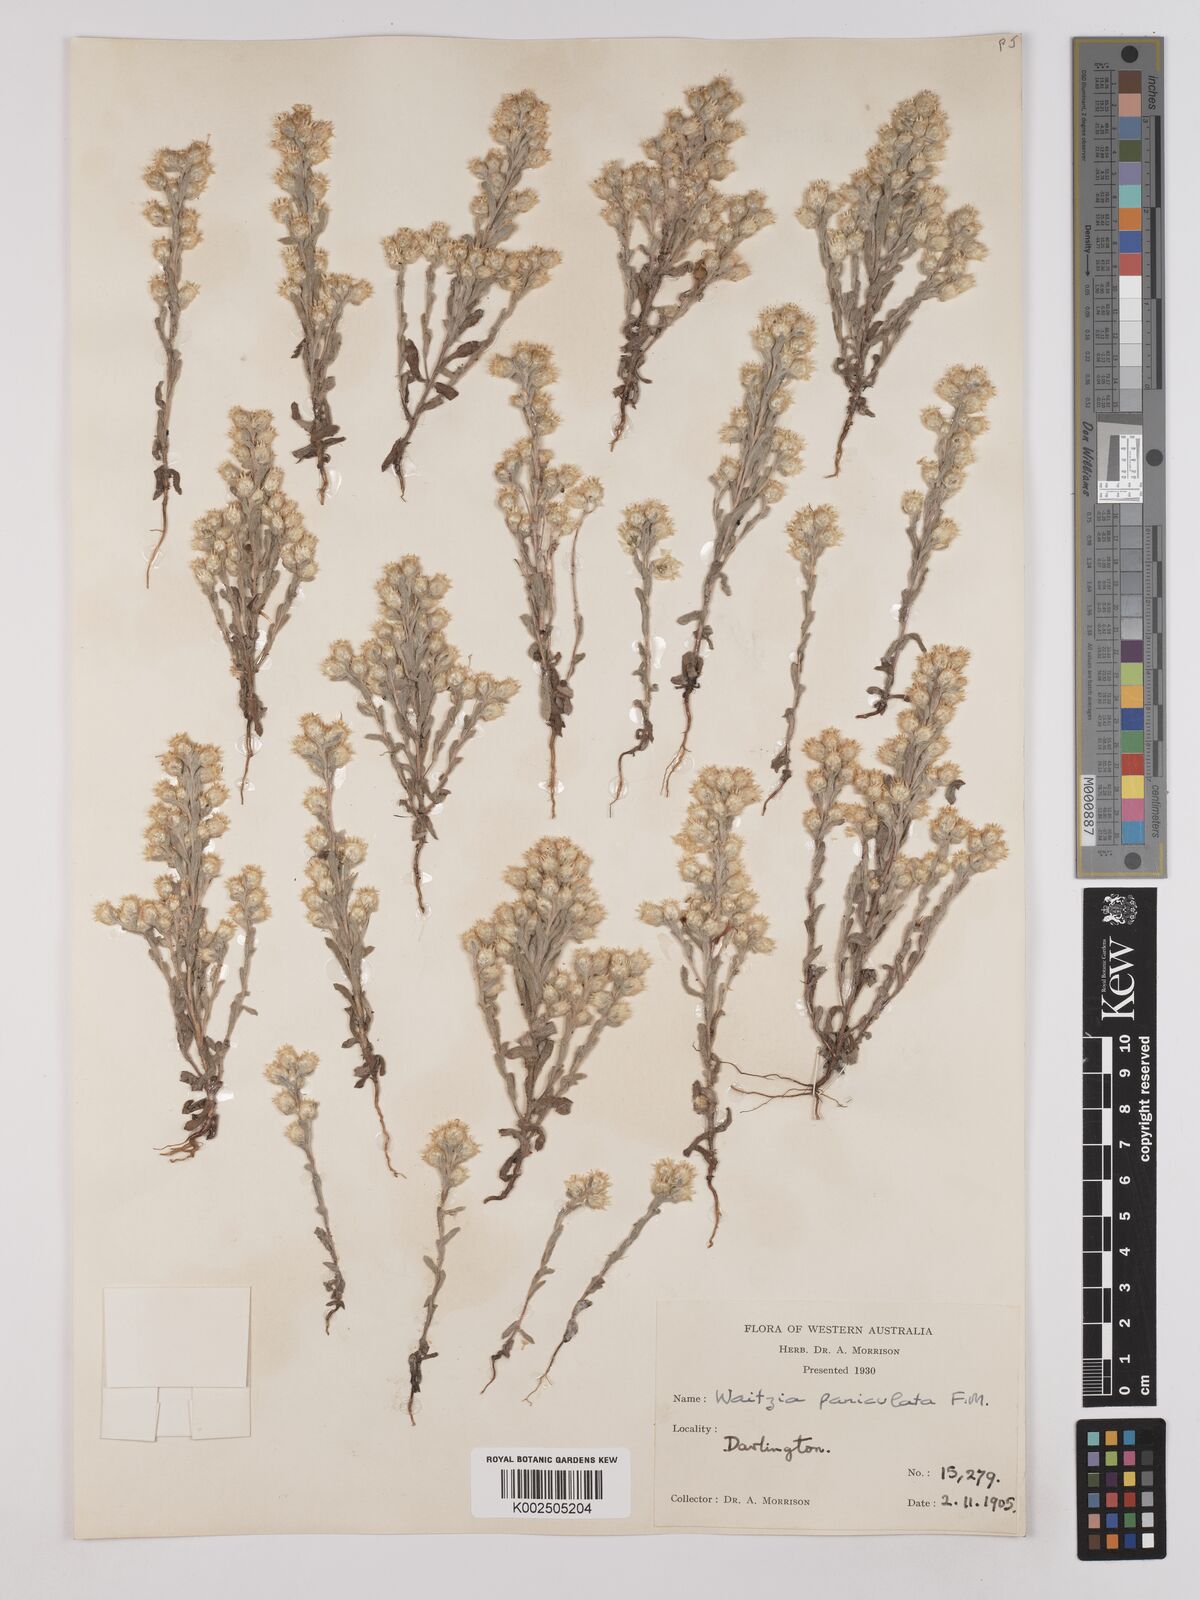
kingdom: Plantae
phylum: Tracheophyta
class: Magnoliopsida
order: Asterales
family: Asteraceae
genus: Pterochaeta
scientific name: Pterochaeta paniculata
